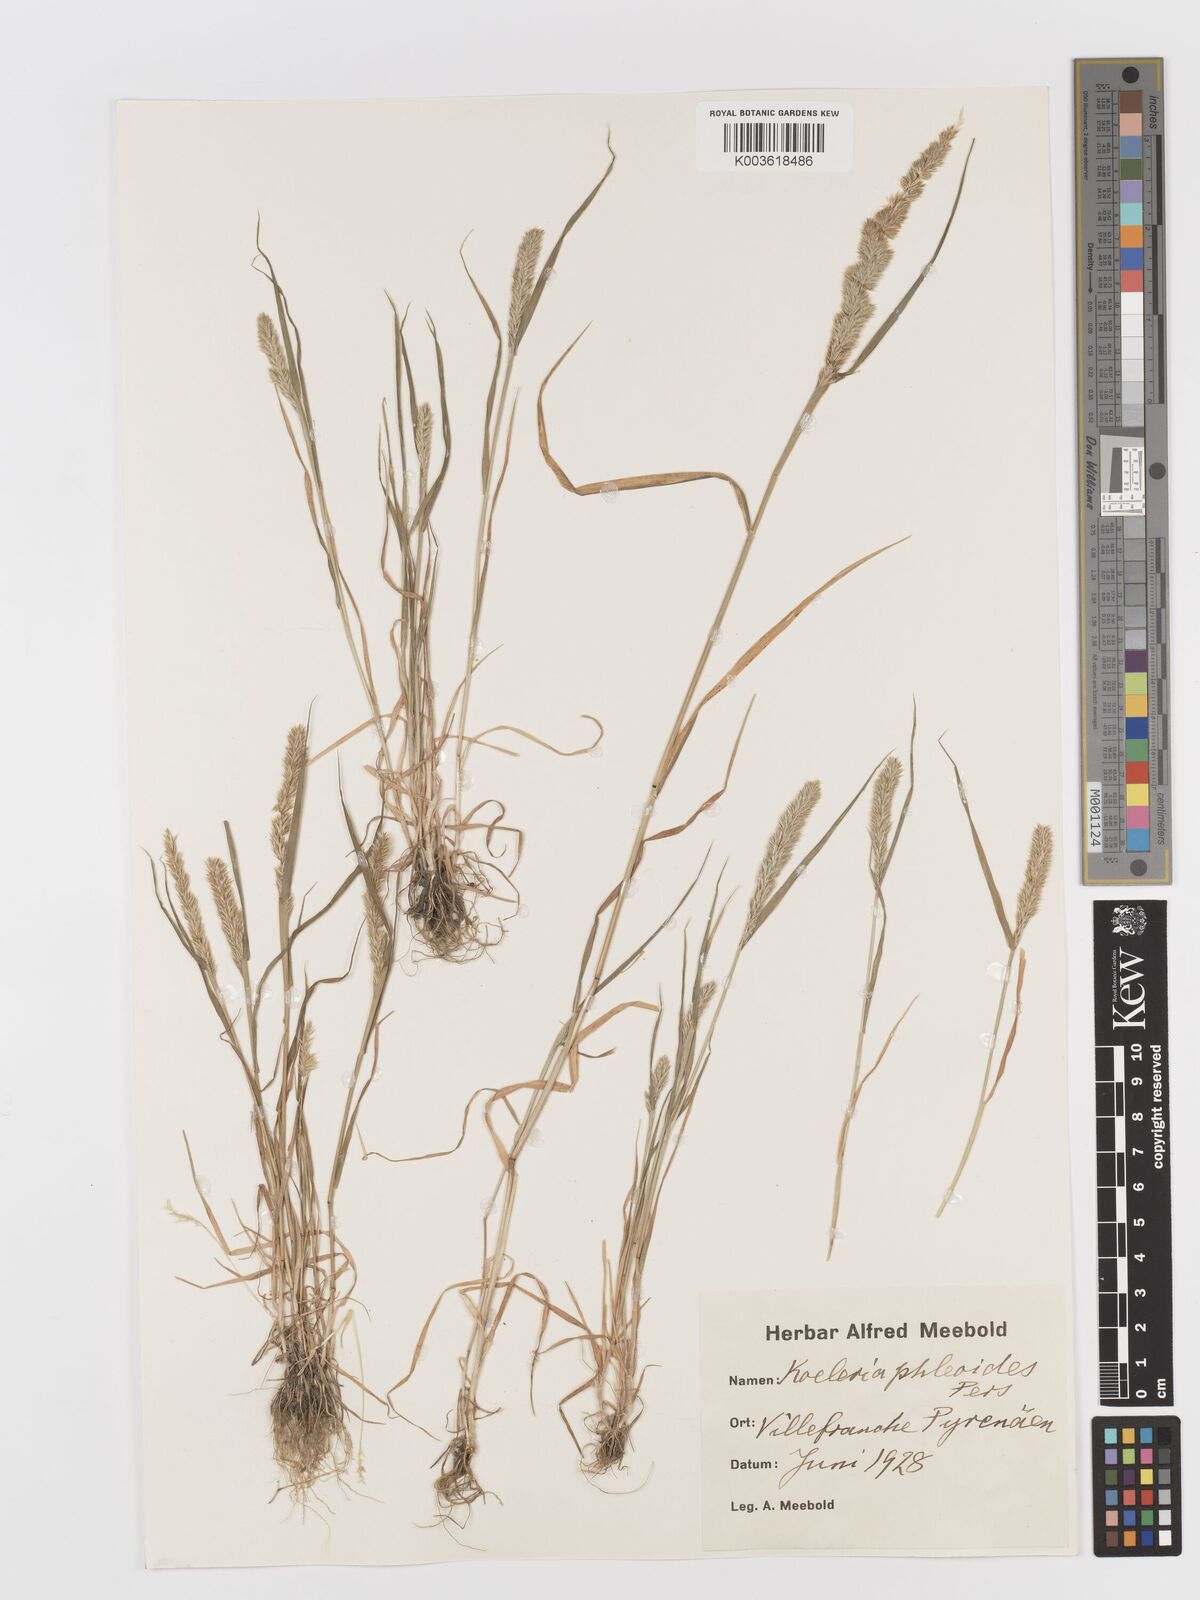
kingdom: Plantae
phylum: Tracheophyta
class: Liliopsida
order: Poales
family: Poaceae
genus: Rostraria
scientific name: Rostraria cristata
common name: Mediterranean hair-grass
